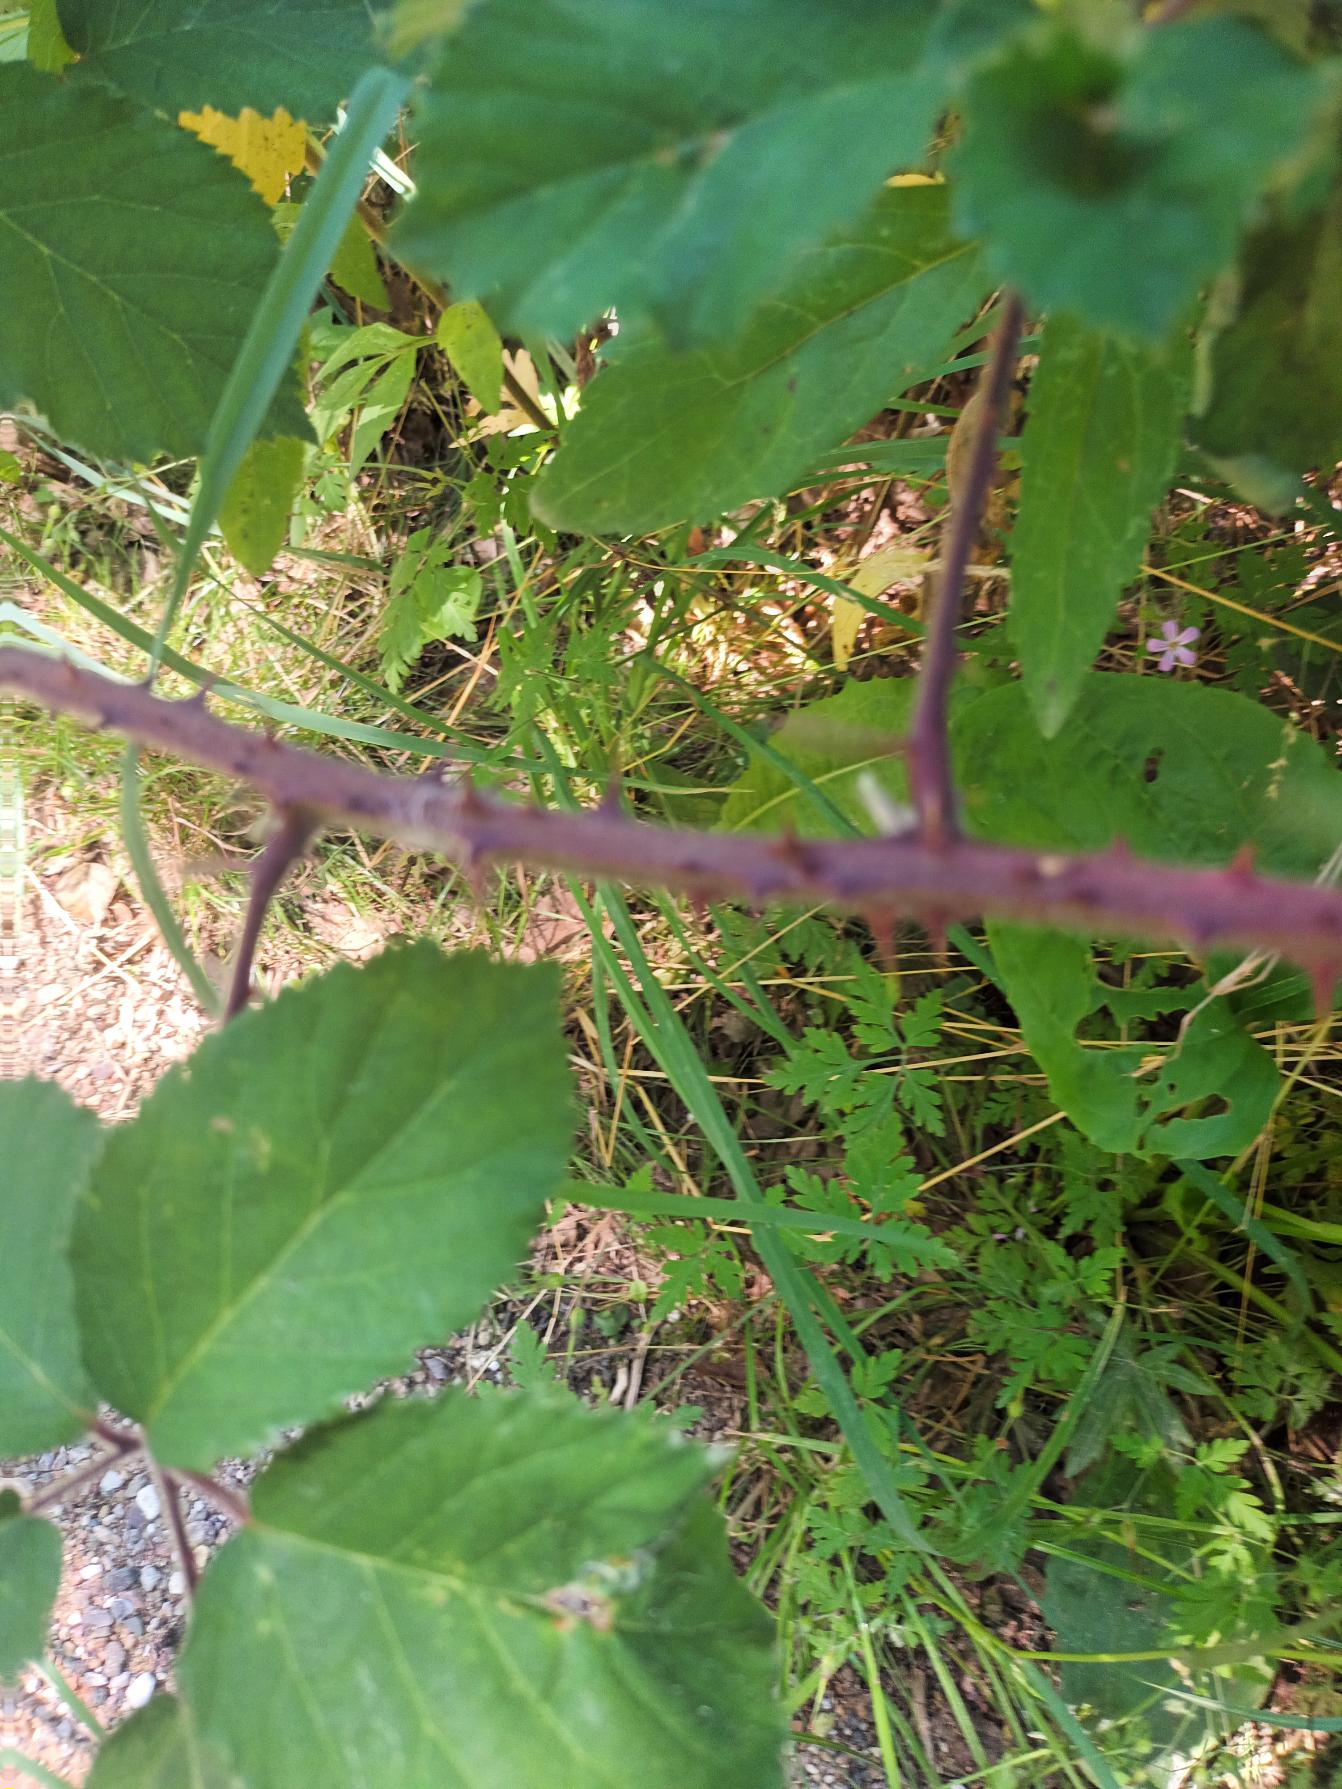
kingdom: Plantae
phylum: Tracheophyta
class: Magnoliopsida
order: Rosales
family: Rosaceae
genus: Rubus
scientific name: Rubus vestitus
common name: Rundbladet brombær
